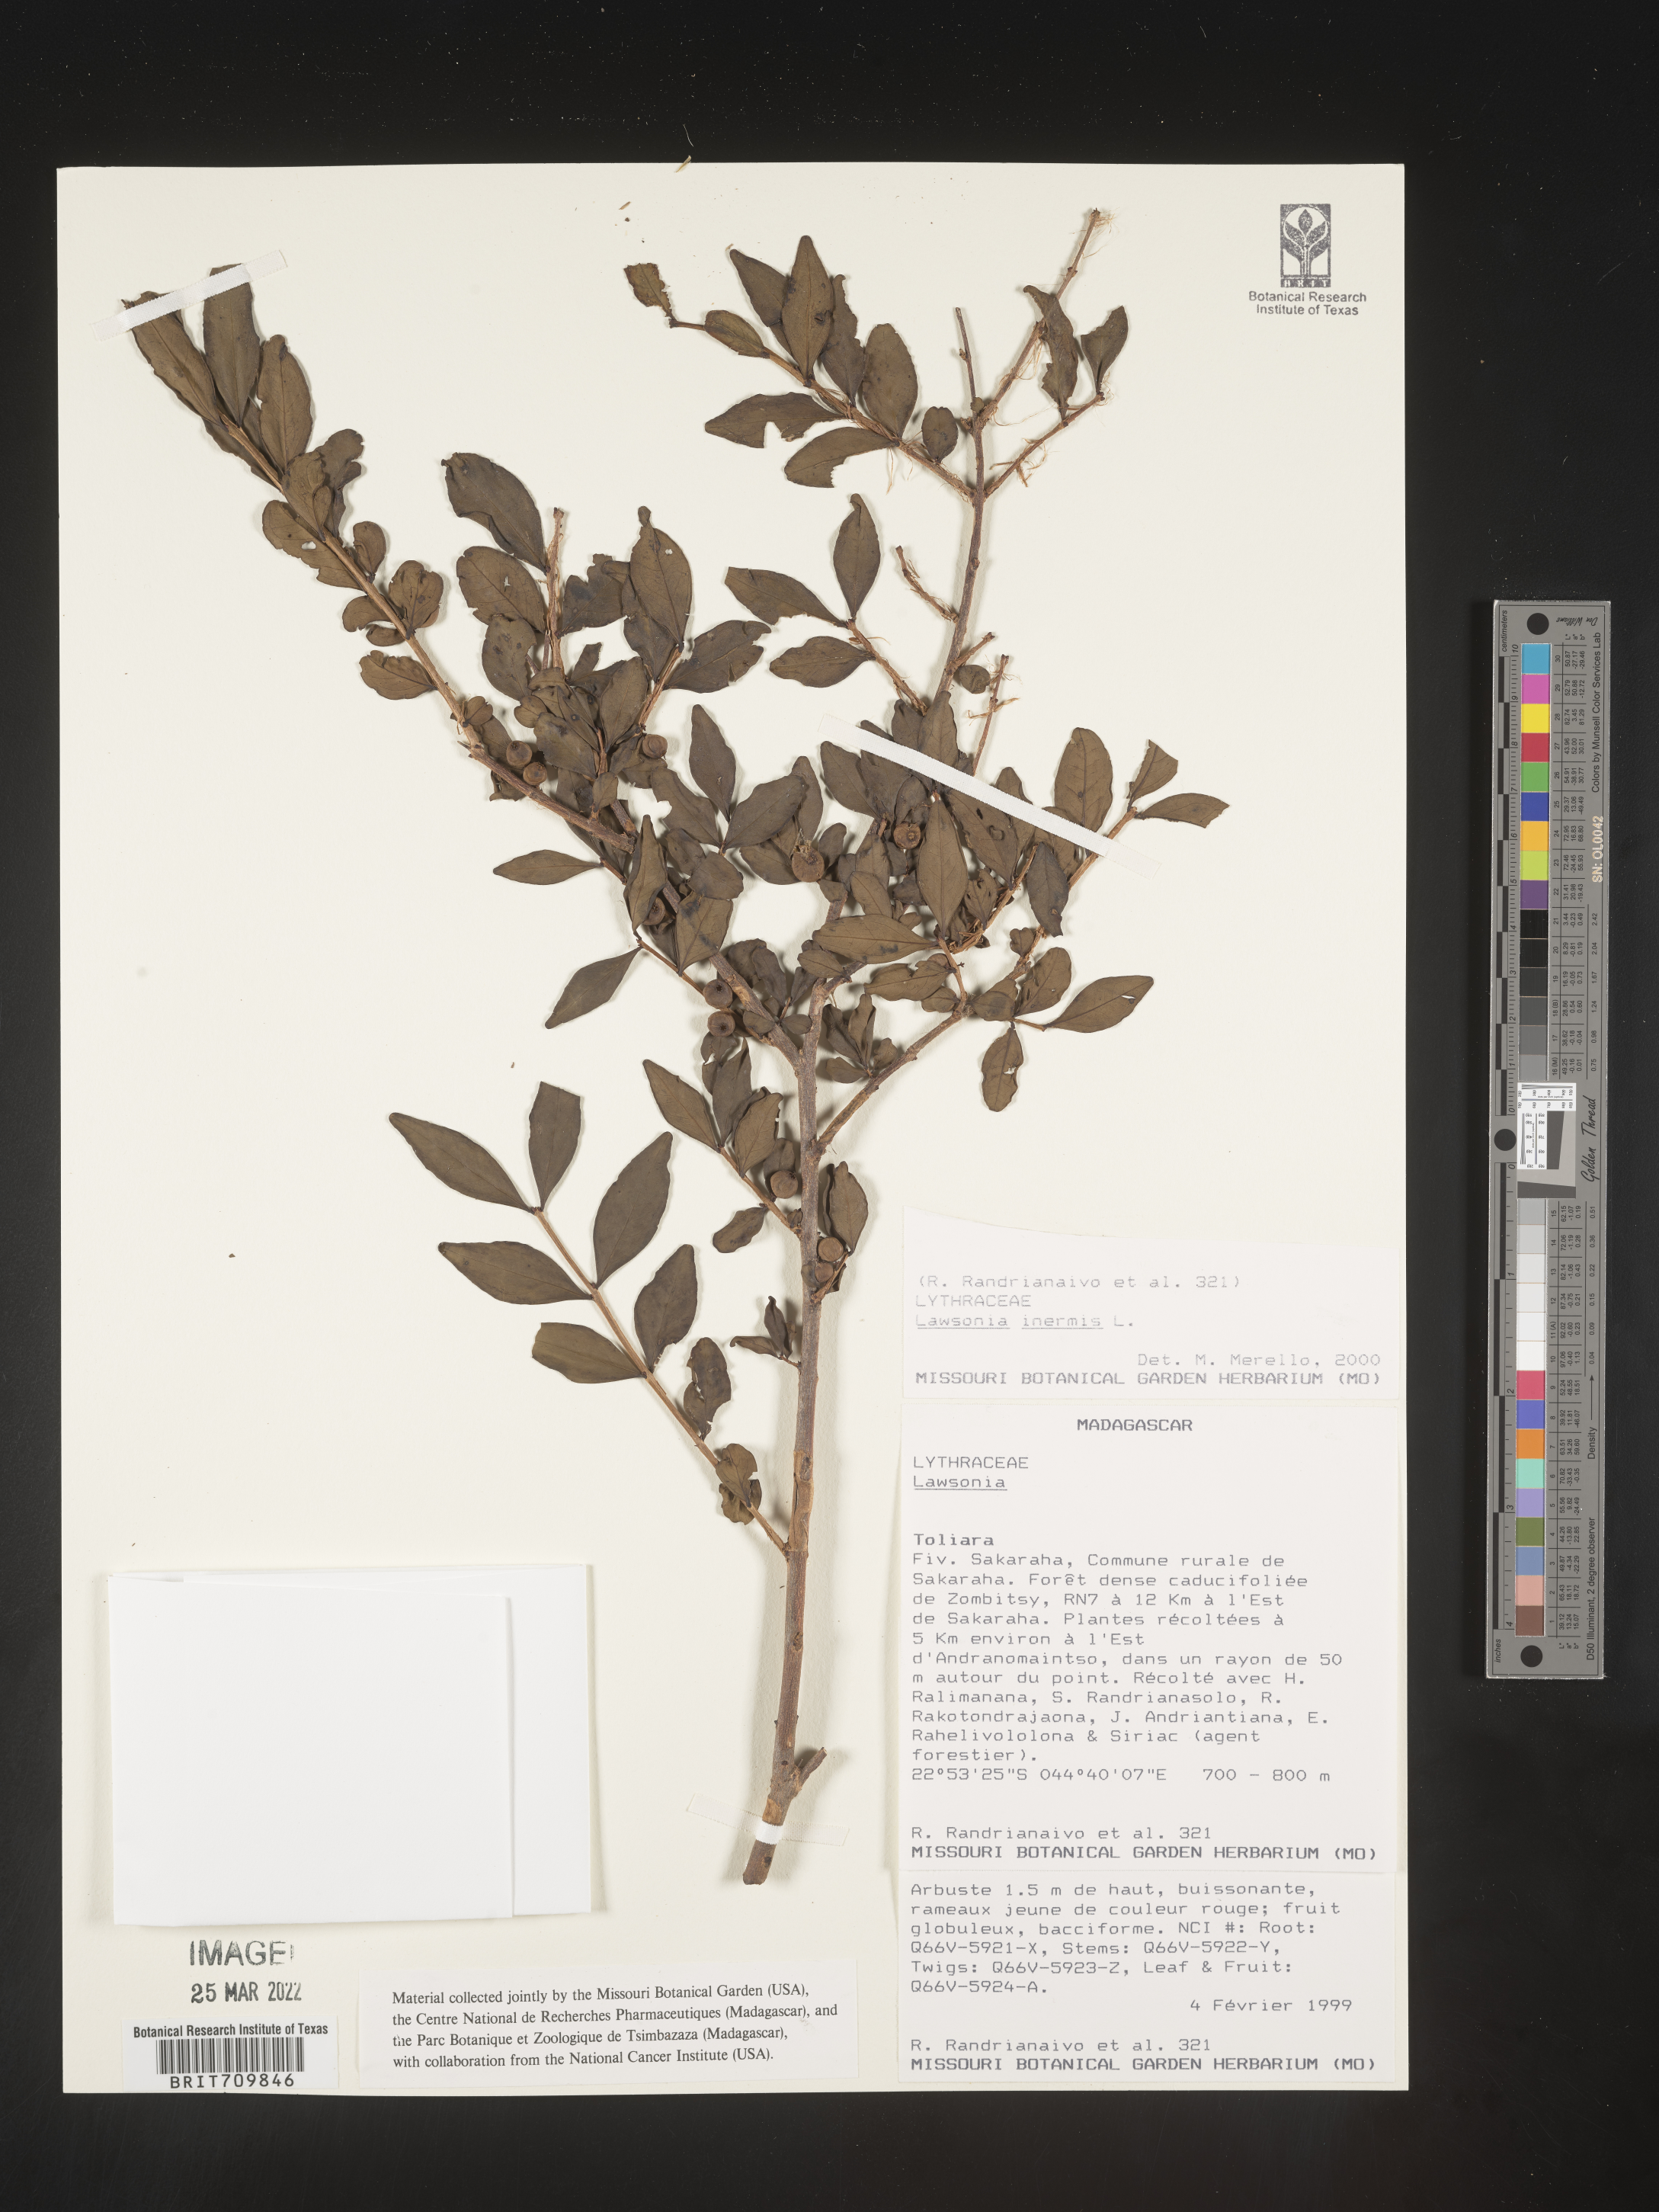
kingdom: Plantae
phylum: Tracheophyta
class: Magnoliopsida
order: Myrtales
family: Lythraceae
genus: Lawsonia
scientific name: Lawsonia
